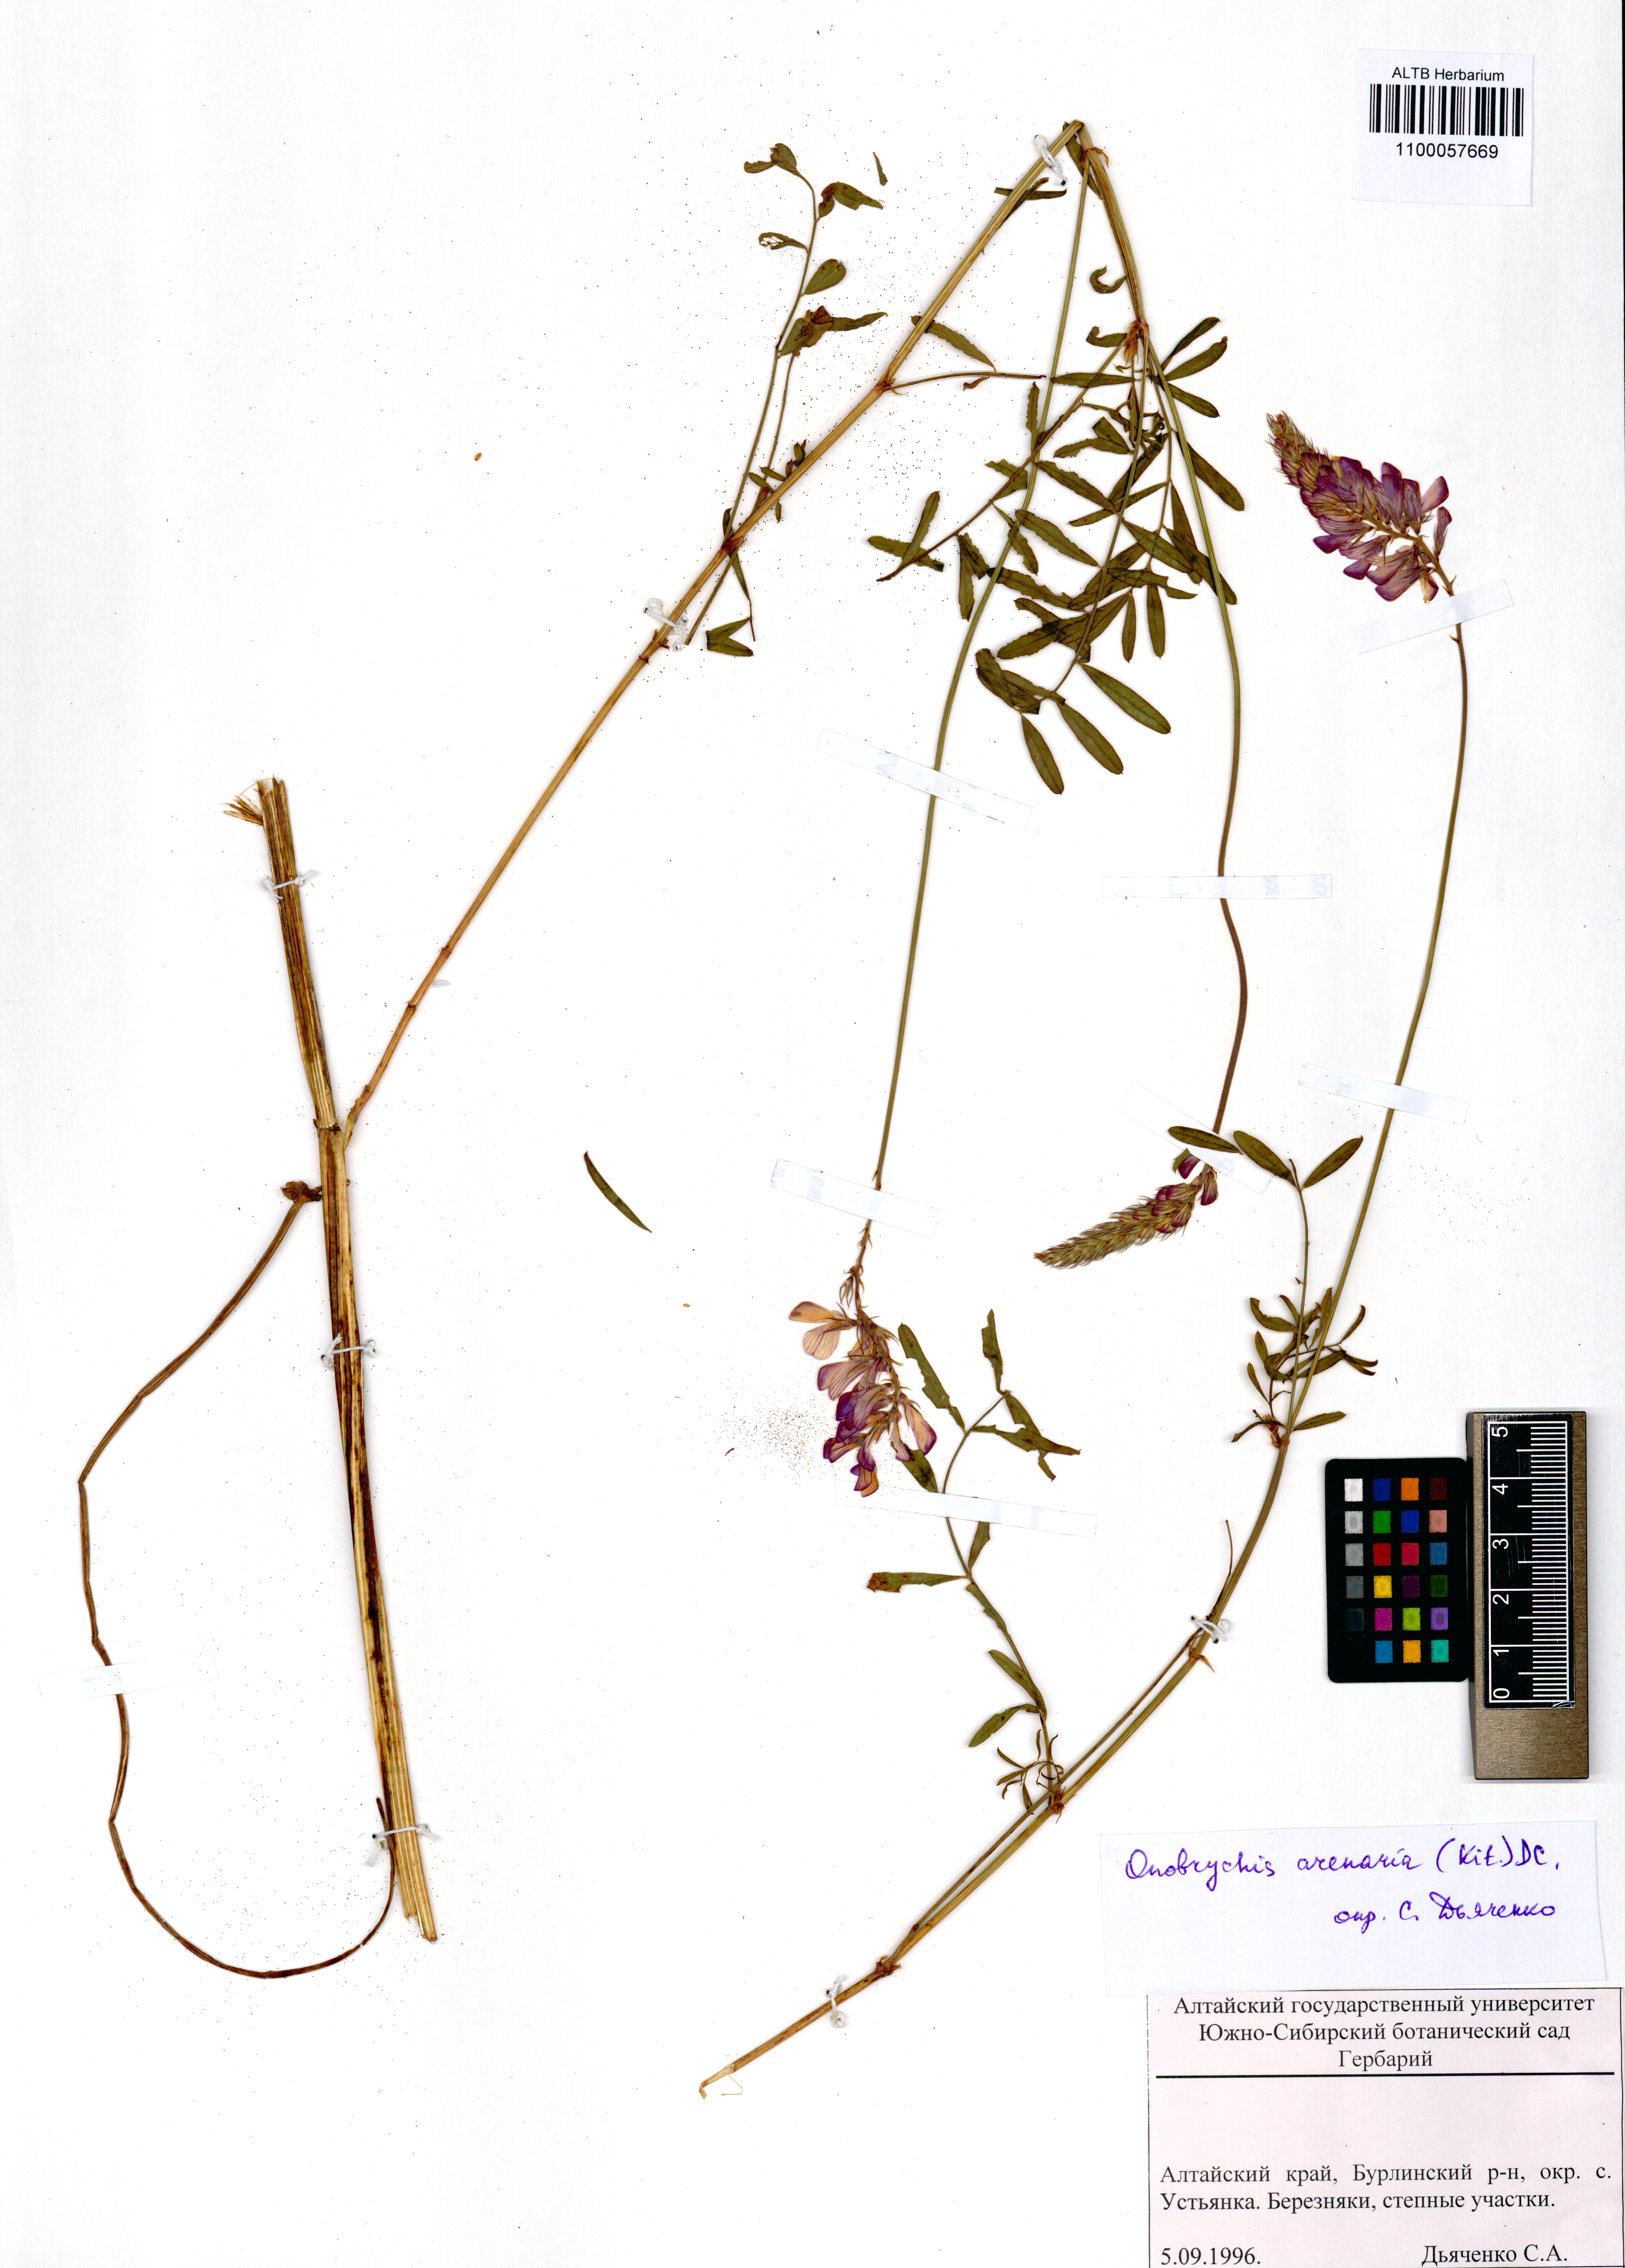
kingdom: Plantae
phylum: Tracheophyta
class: Magnoliopsida
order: Fabales
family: Fabaceae
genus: Onobrychis
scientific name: Onobrychis arenaria
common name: Sand esparcet
